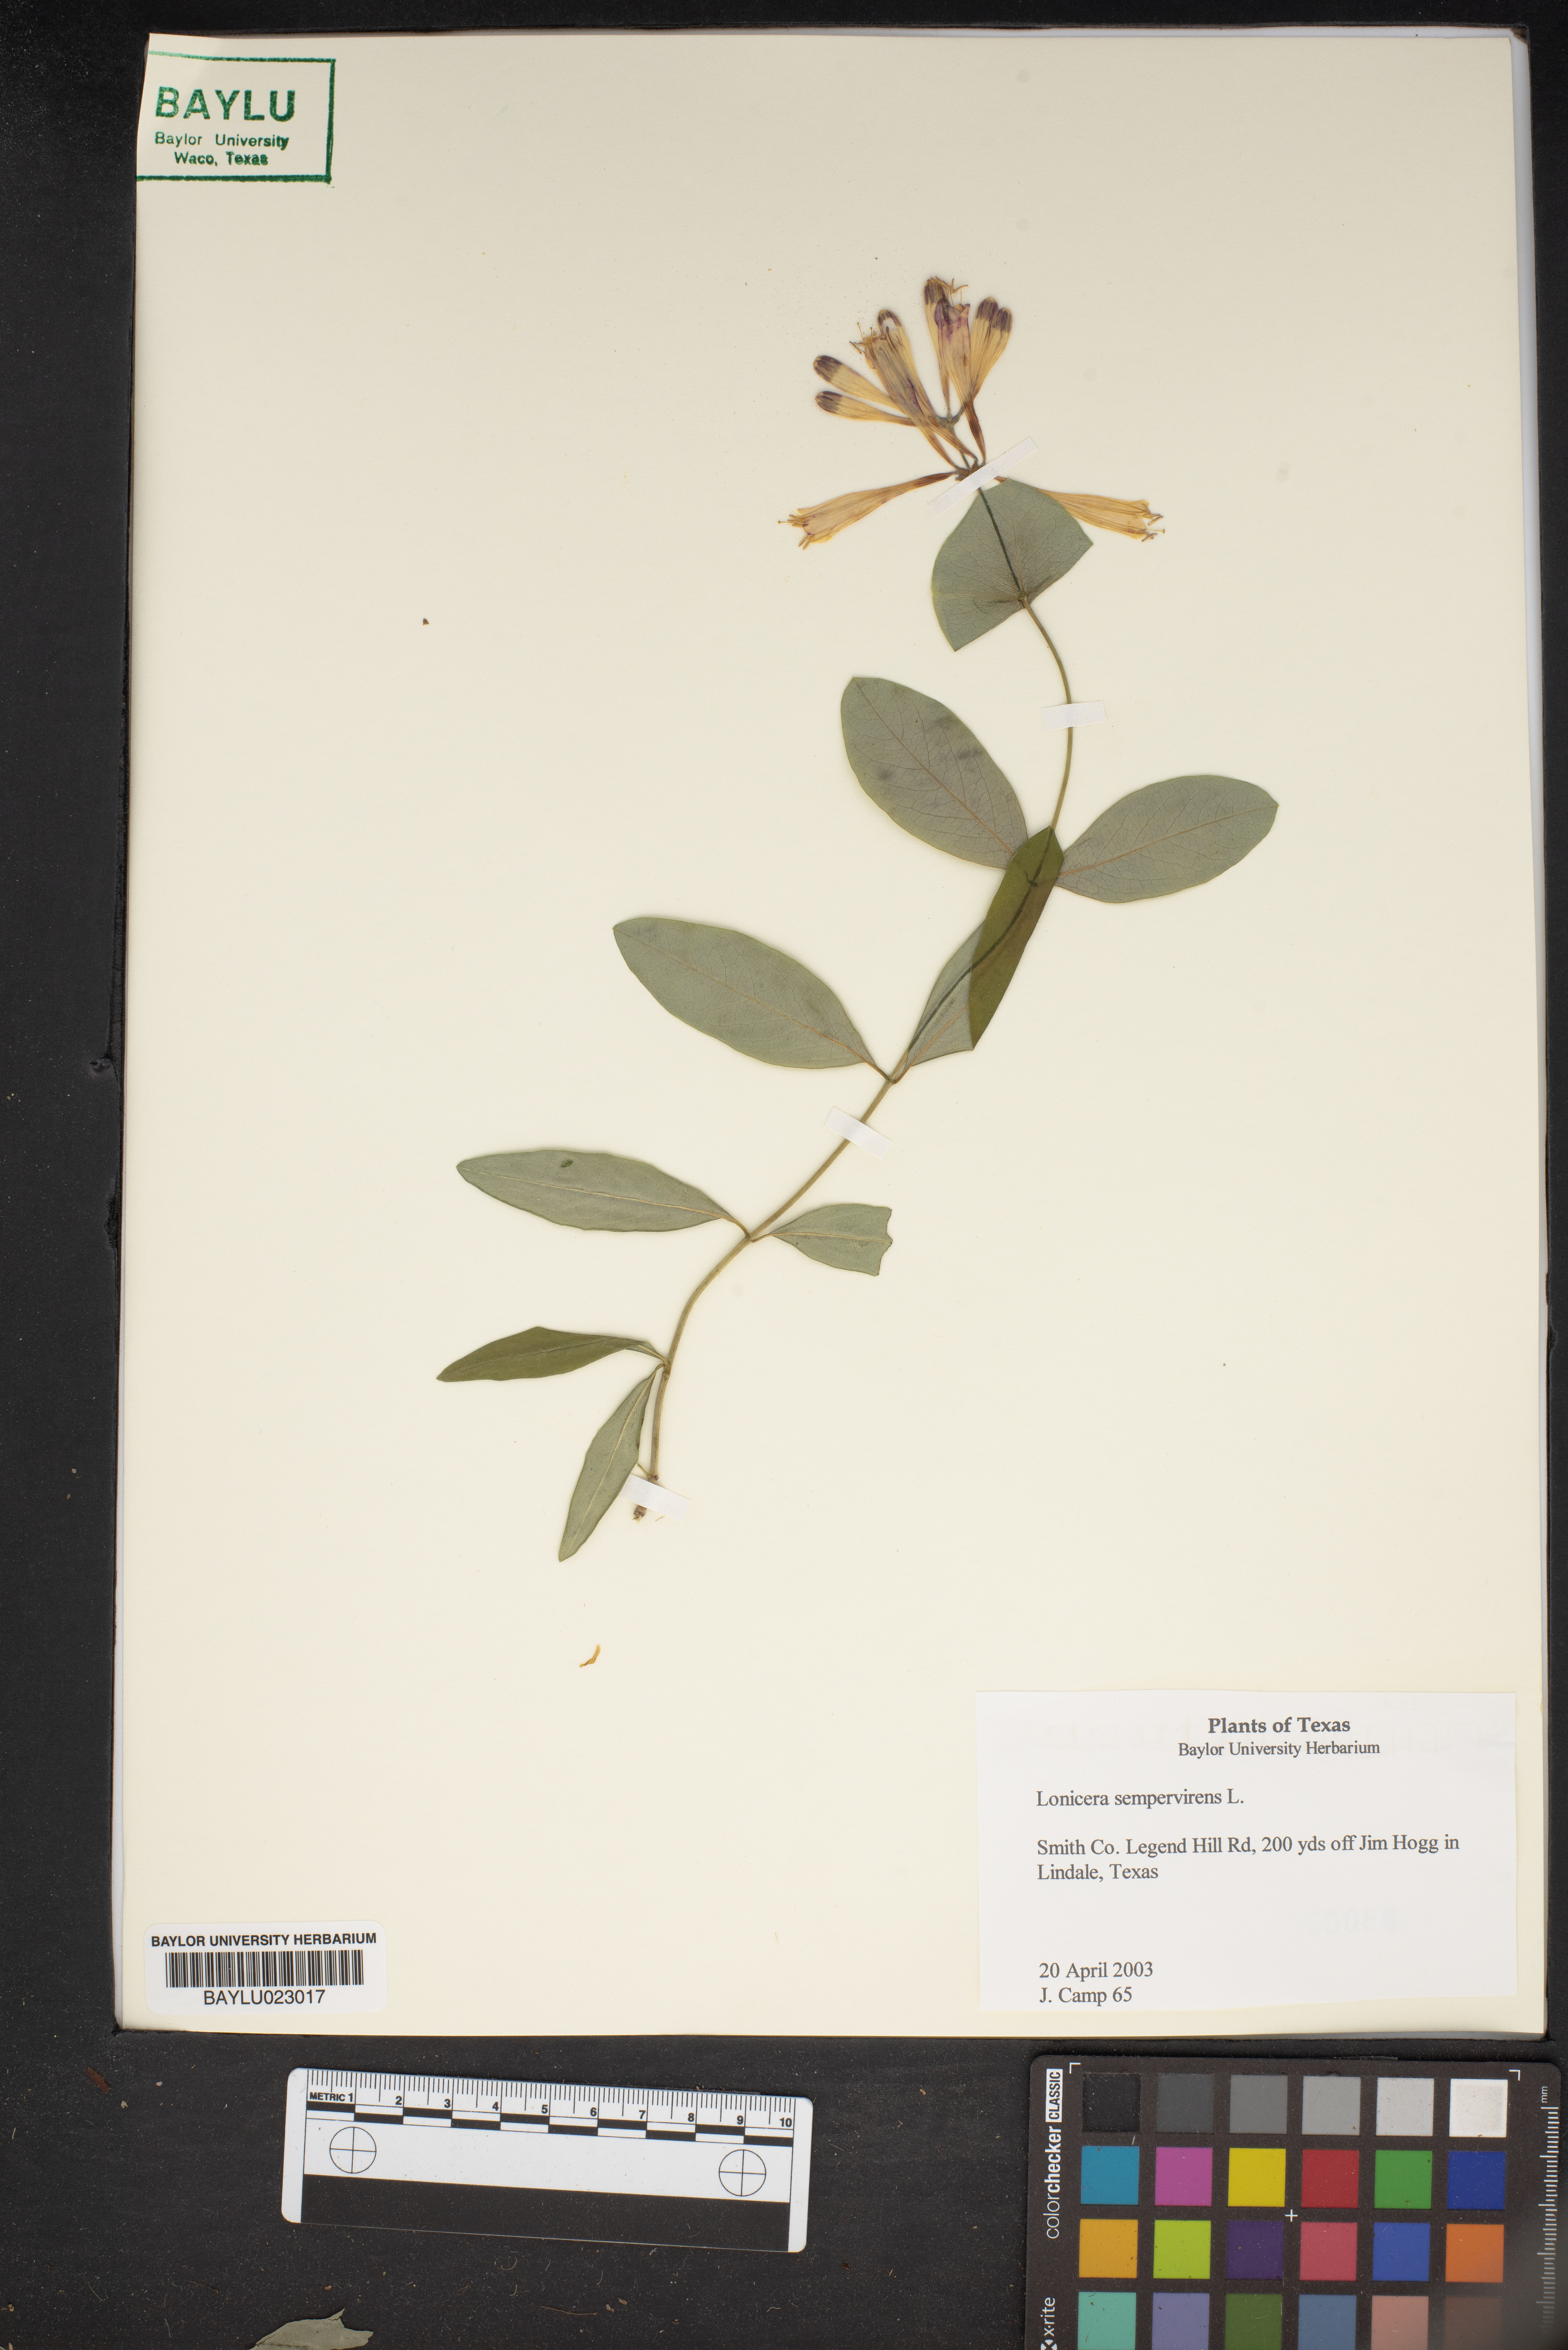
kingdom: Plantae
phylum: Tracheophyta
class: Magnoliopsida
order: Dipsacales
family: Caprifoliaceae
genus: Lonicera
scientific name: Lonicera sempervirens
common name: Coral honeysuckle
